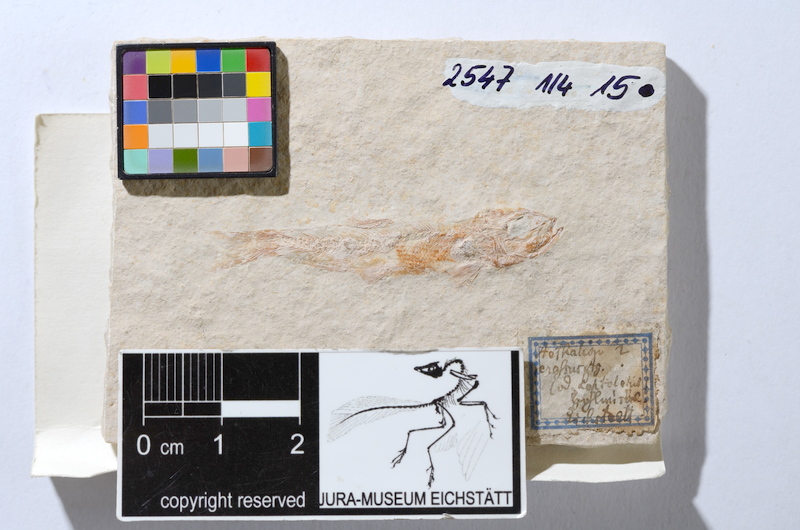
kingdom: Animalia
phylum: Chordata
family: Ascalaboidae
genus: Tharsis
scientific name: Tharsis dubius
